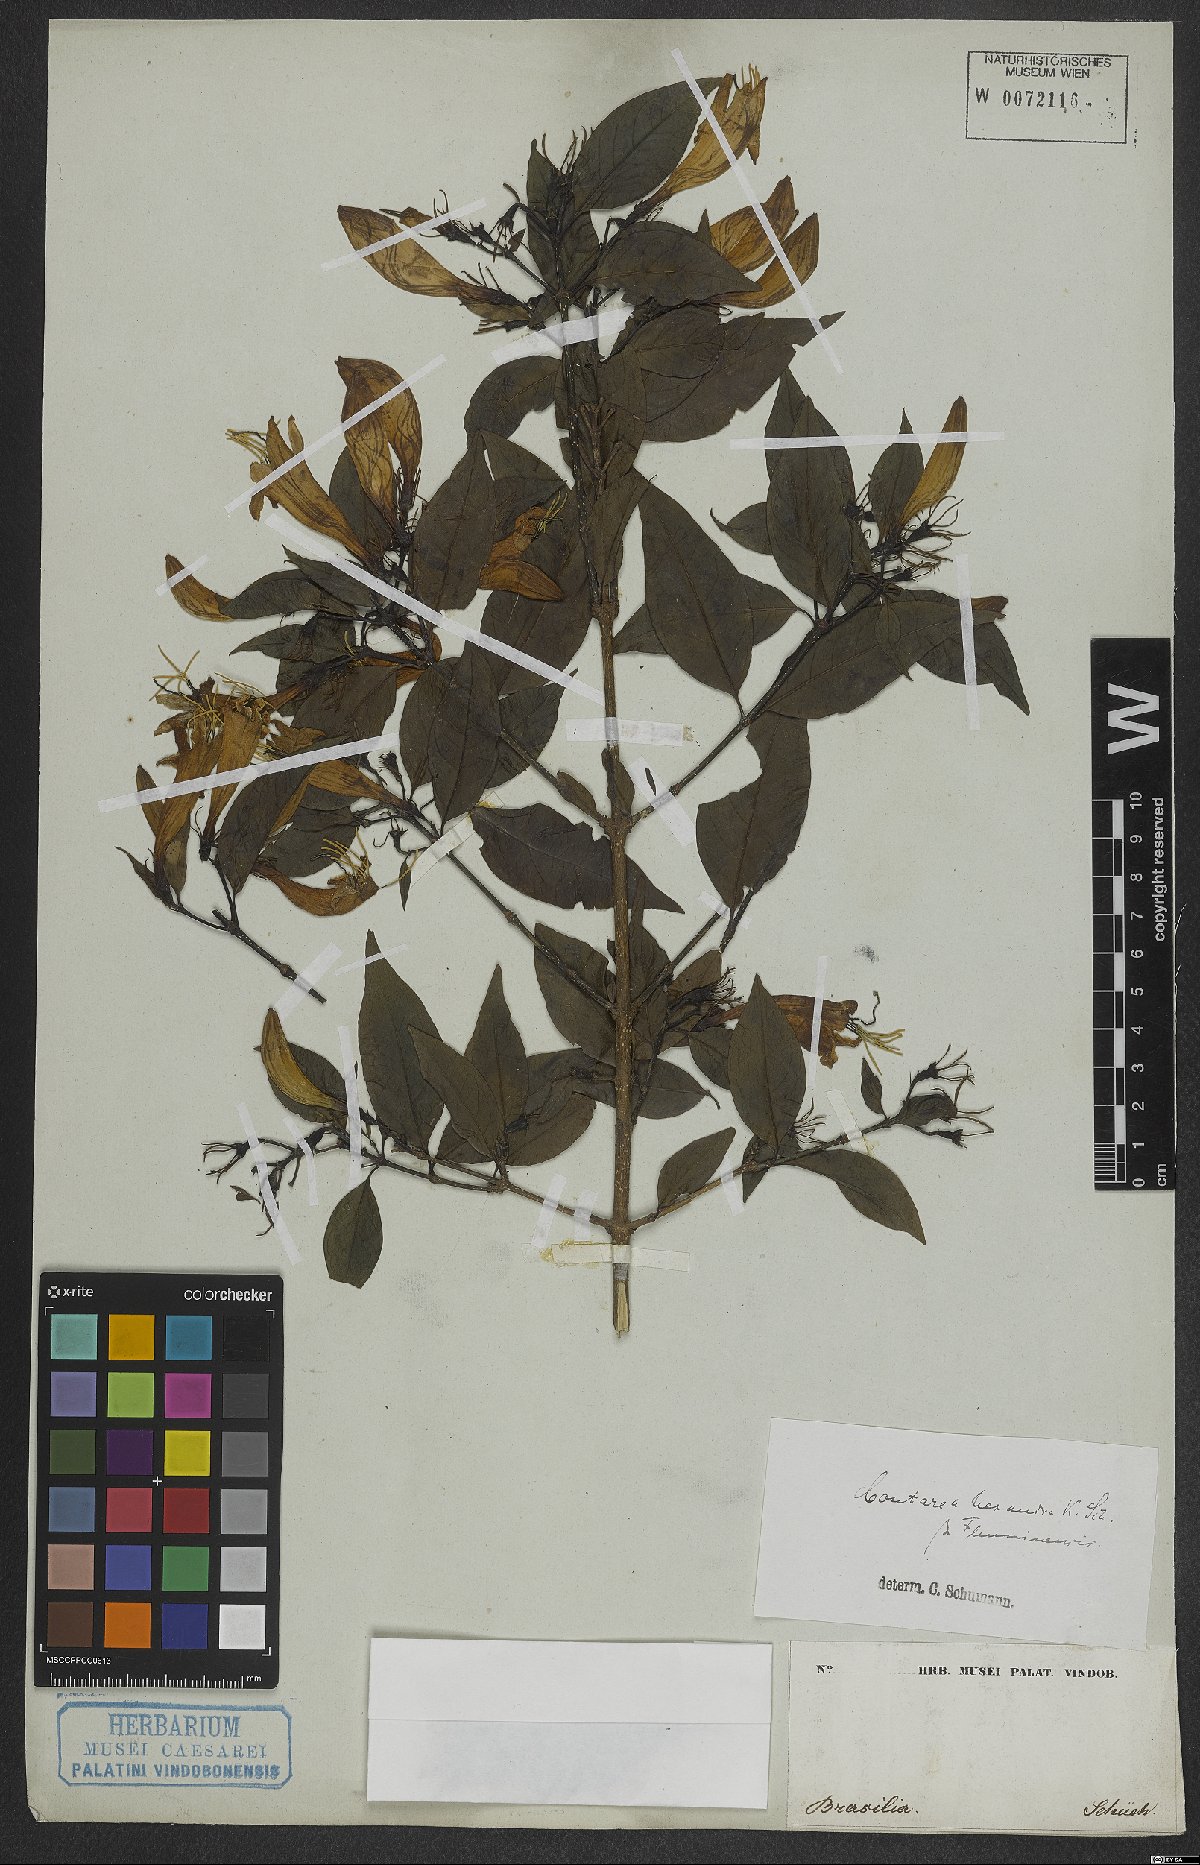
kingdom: Plantae
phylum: Tracheophyta
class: Magnoliopsida
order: Gentianales
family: Rubiaceae
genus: Coutarea
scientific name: Coutarea hexandra
